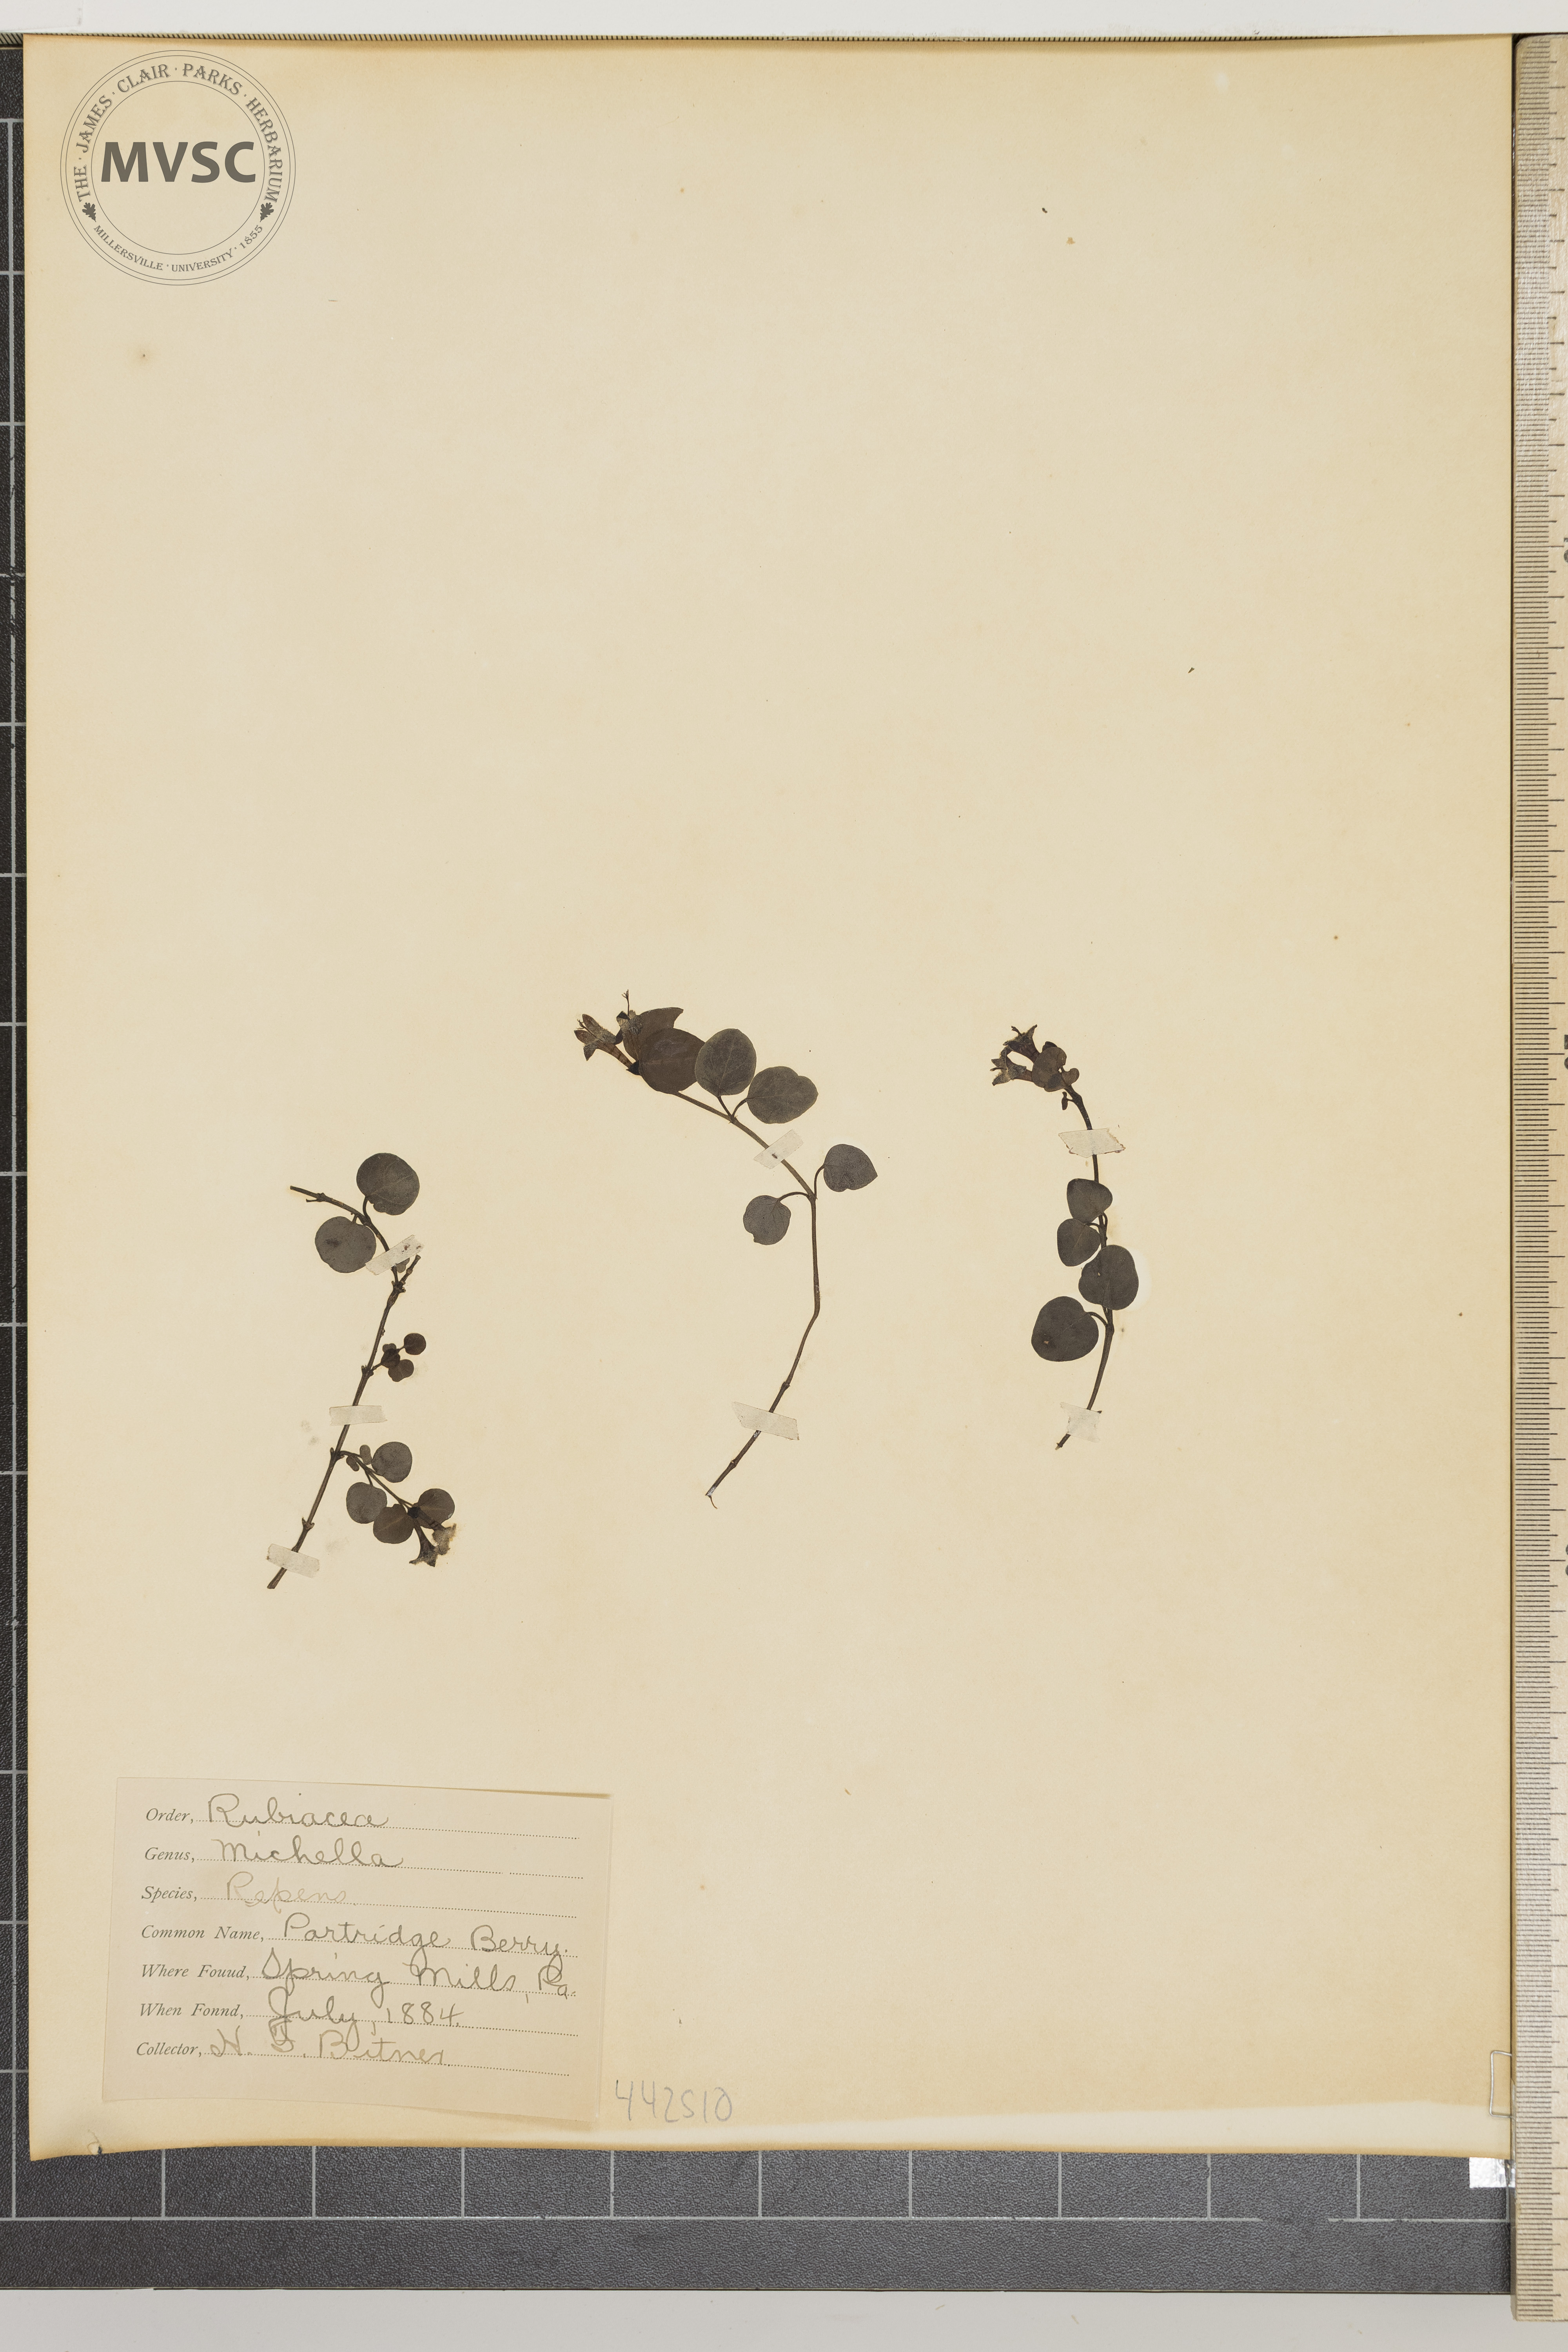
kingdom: Plantae
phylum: Tracheophyta
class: Magnoliopsida
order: Gentianales
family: Rubiaceae
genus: Mitchella
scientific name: Mitchella repens
